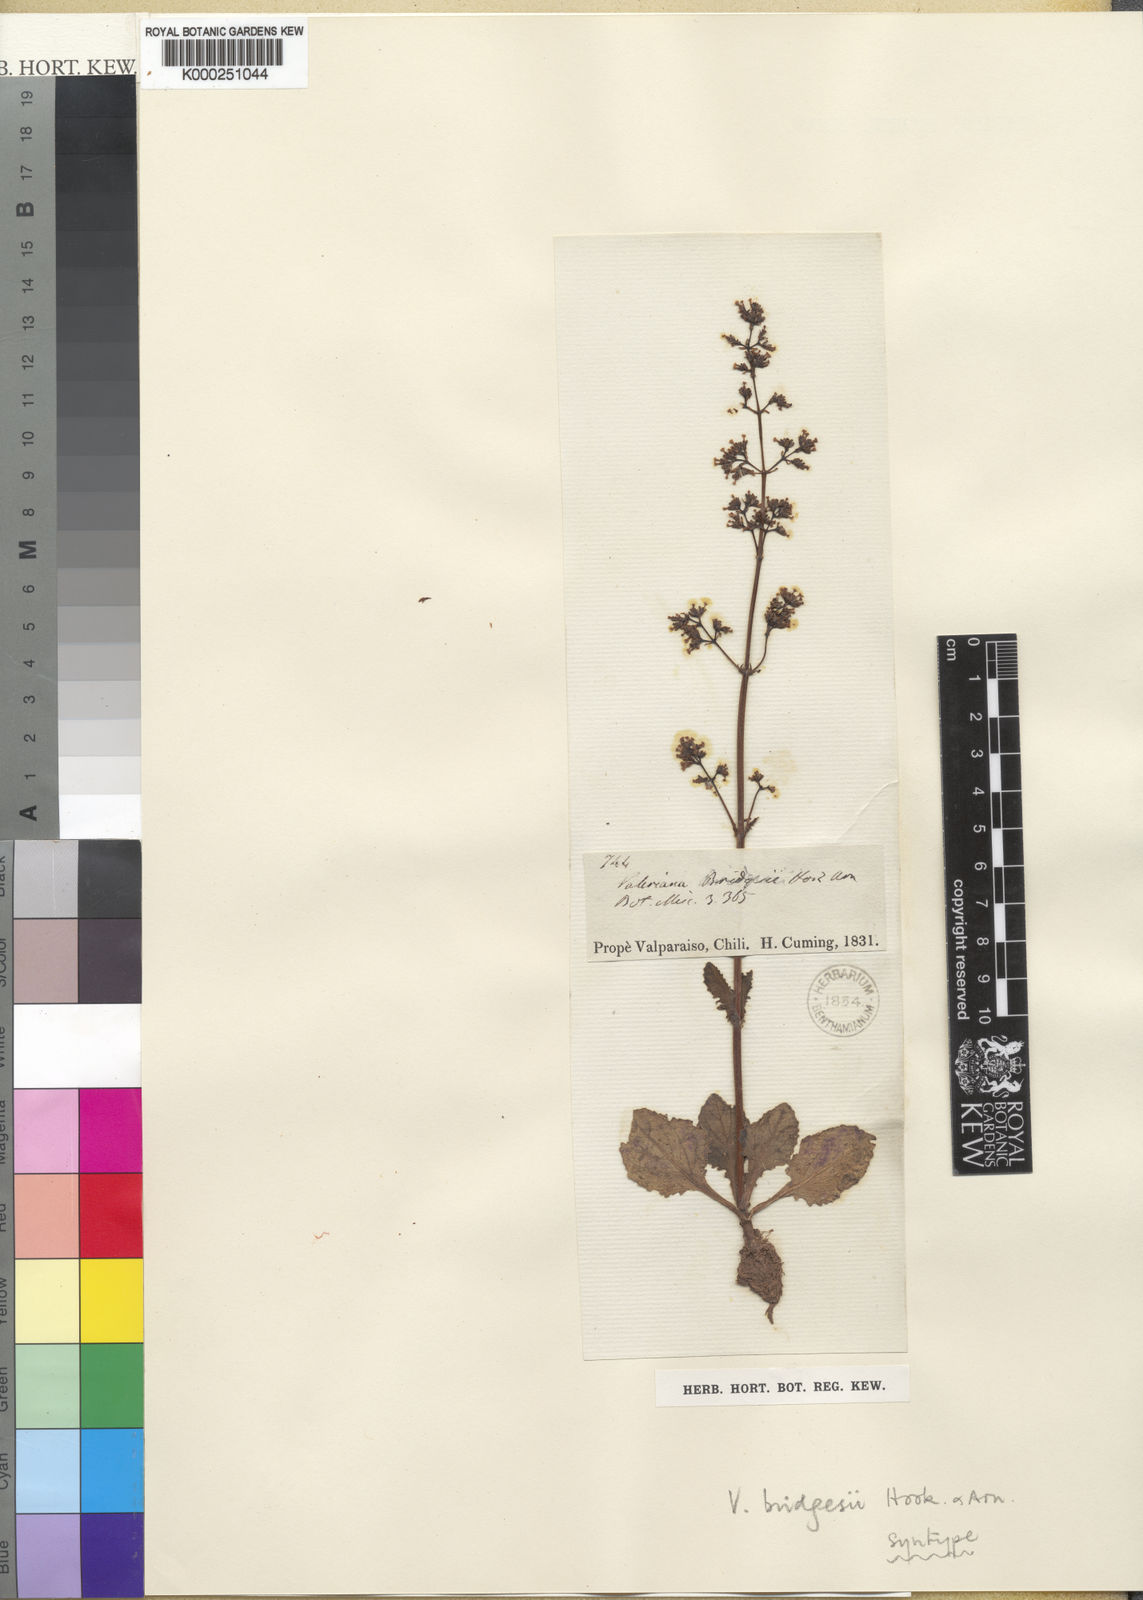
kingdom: Plantae
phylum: Tracheophyta
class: Magnoliopsida
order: Dipsacales
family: Caprifoliaceae
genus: Valeriana
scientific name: Valeriana bridgesii
